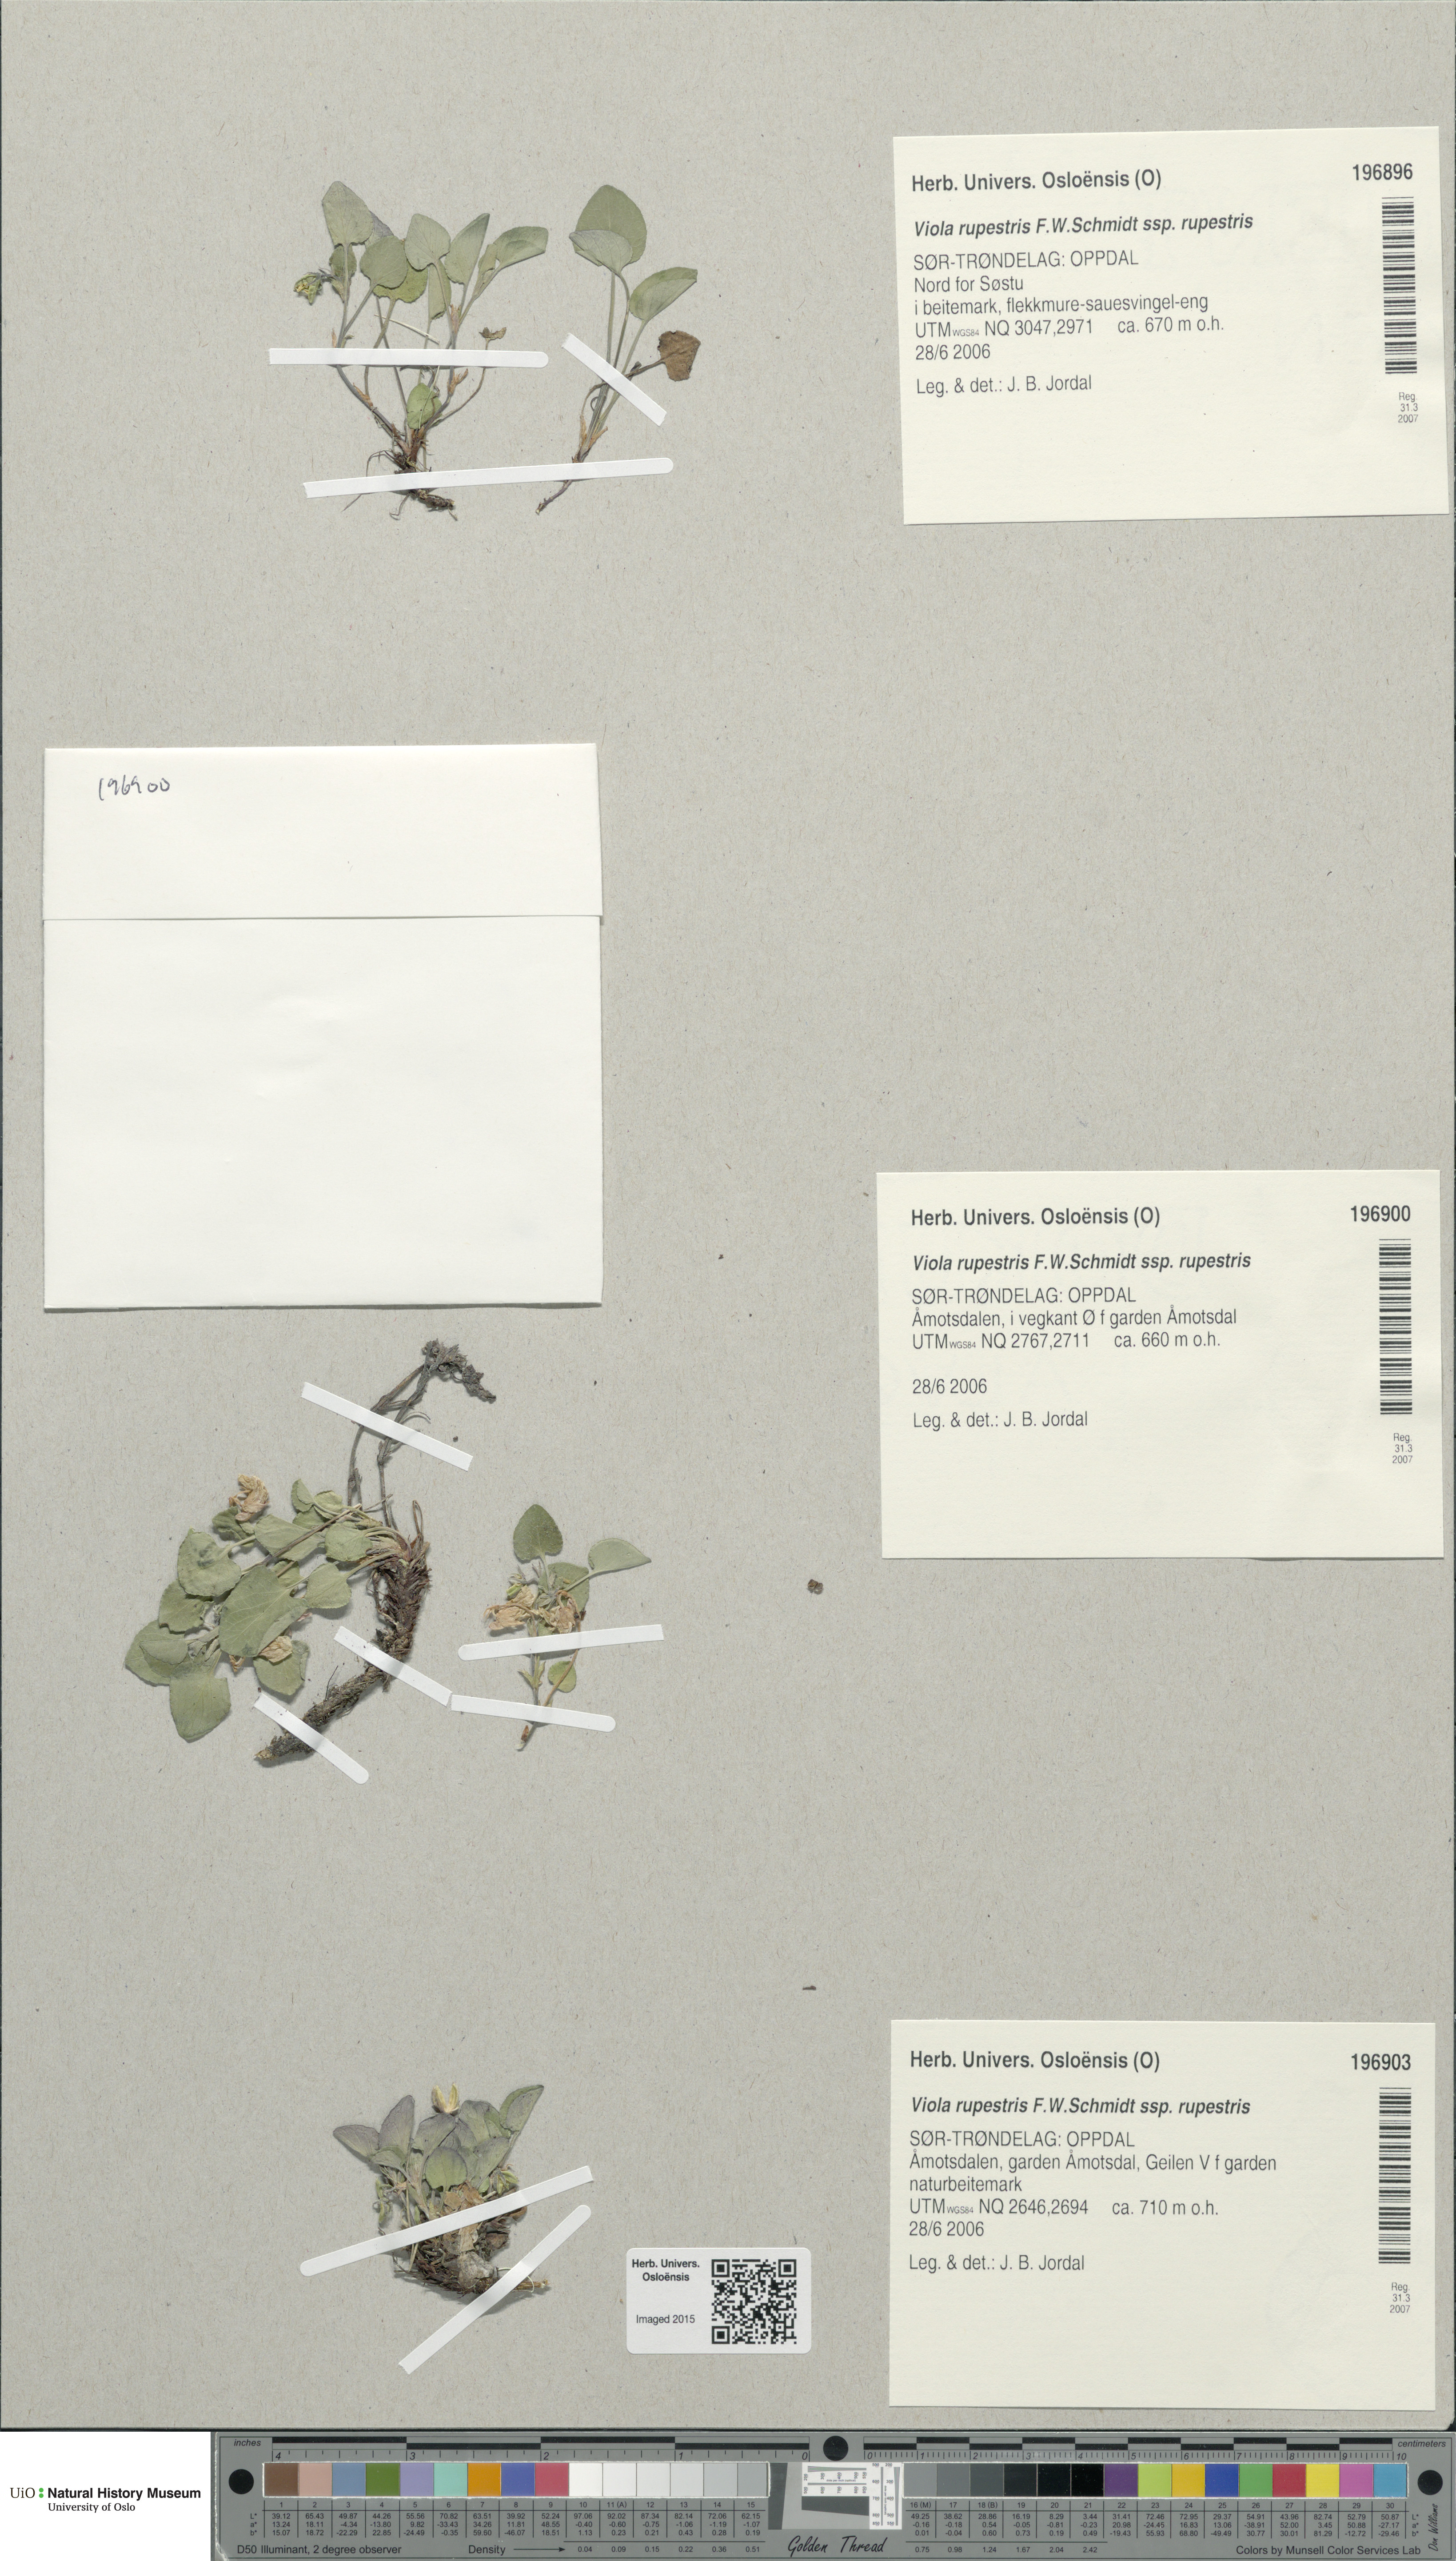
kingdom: Plantae
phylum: Tracheophyta
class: Magnoliopsida
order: Malpighiales
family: Violaceae
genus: Viola
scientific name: Viola rupestris
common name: Teesdale violet
